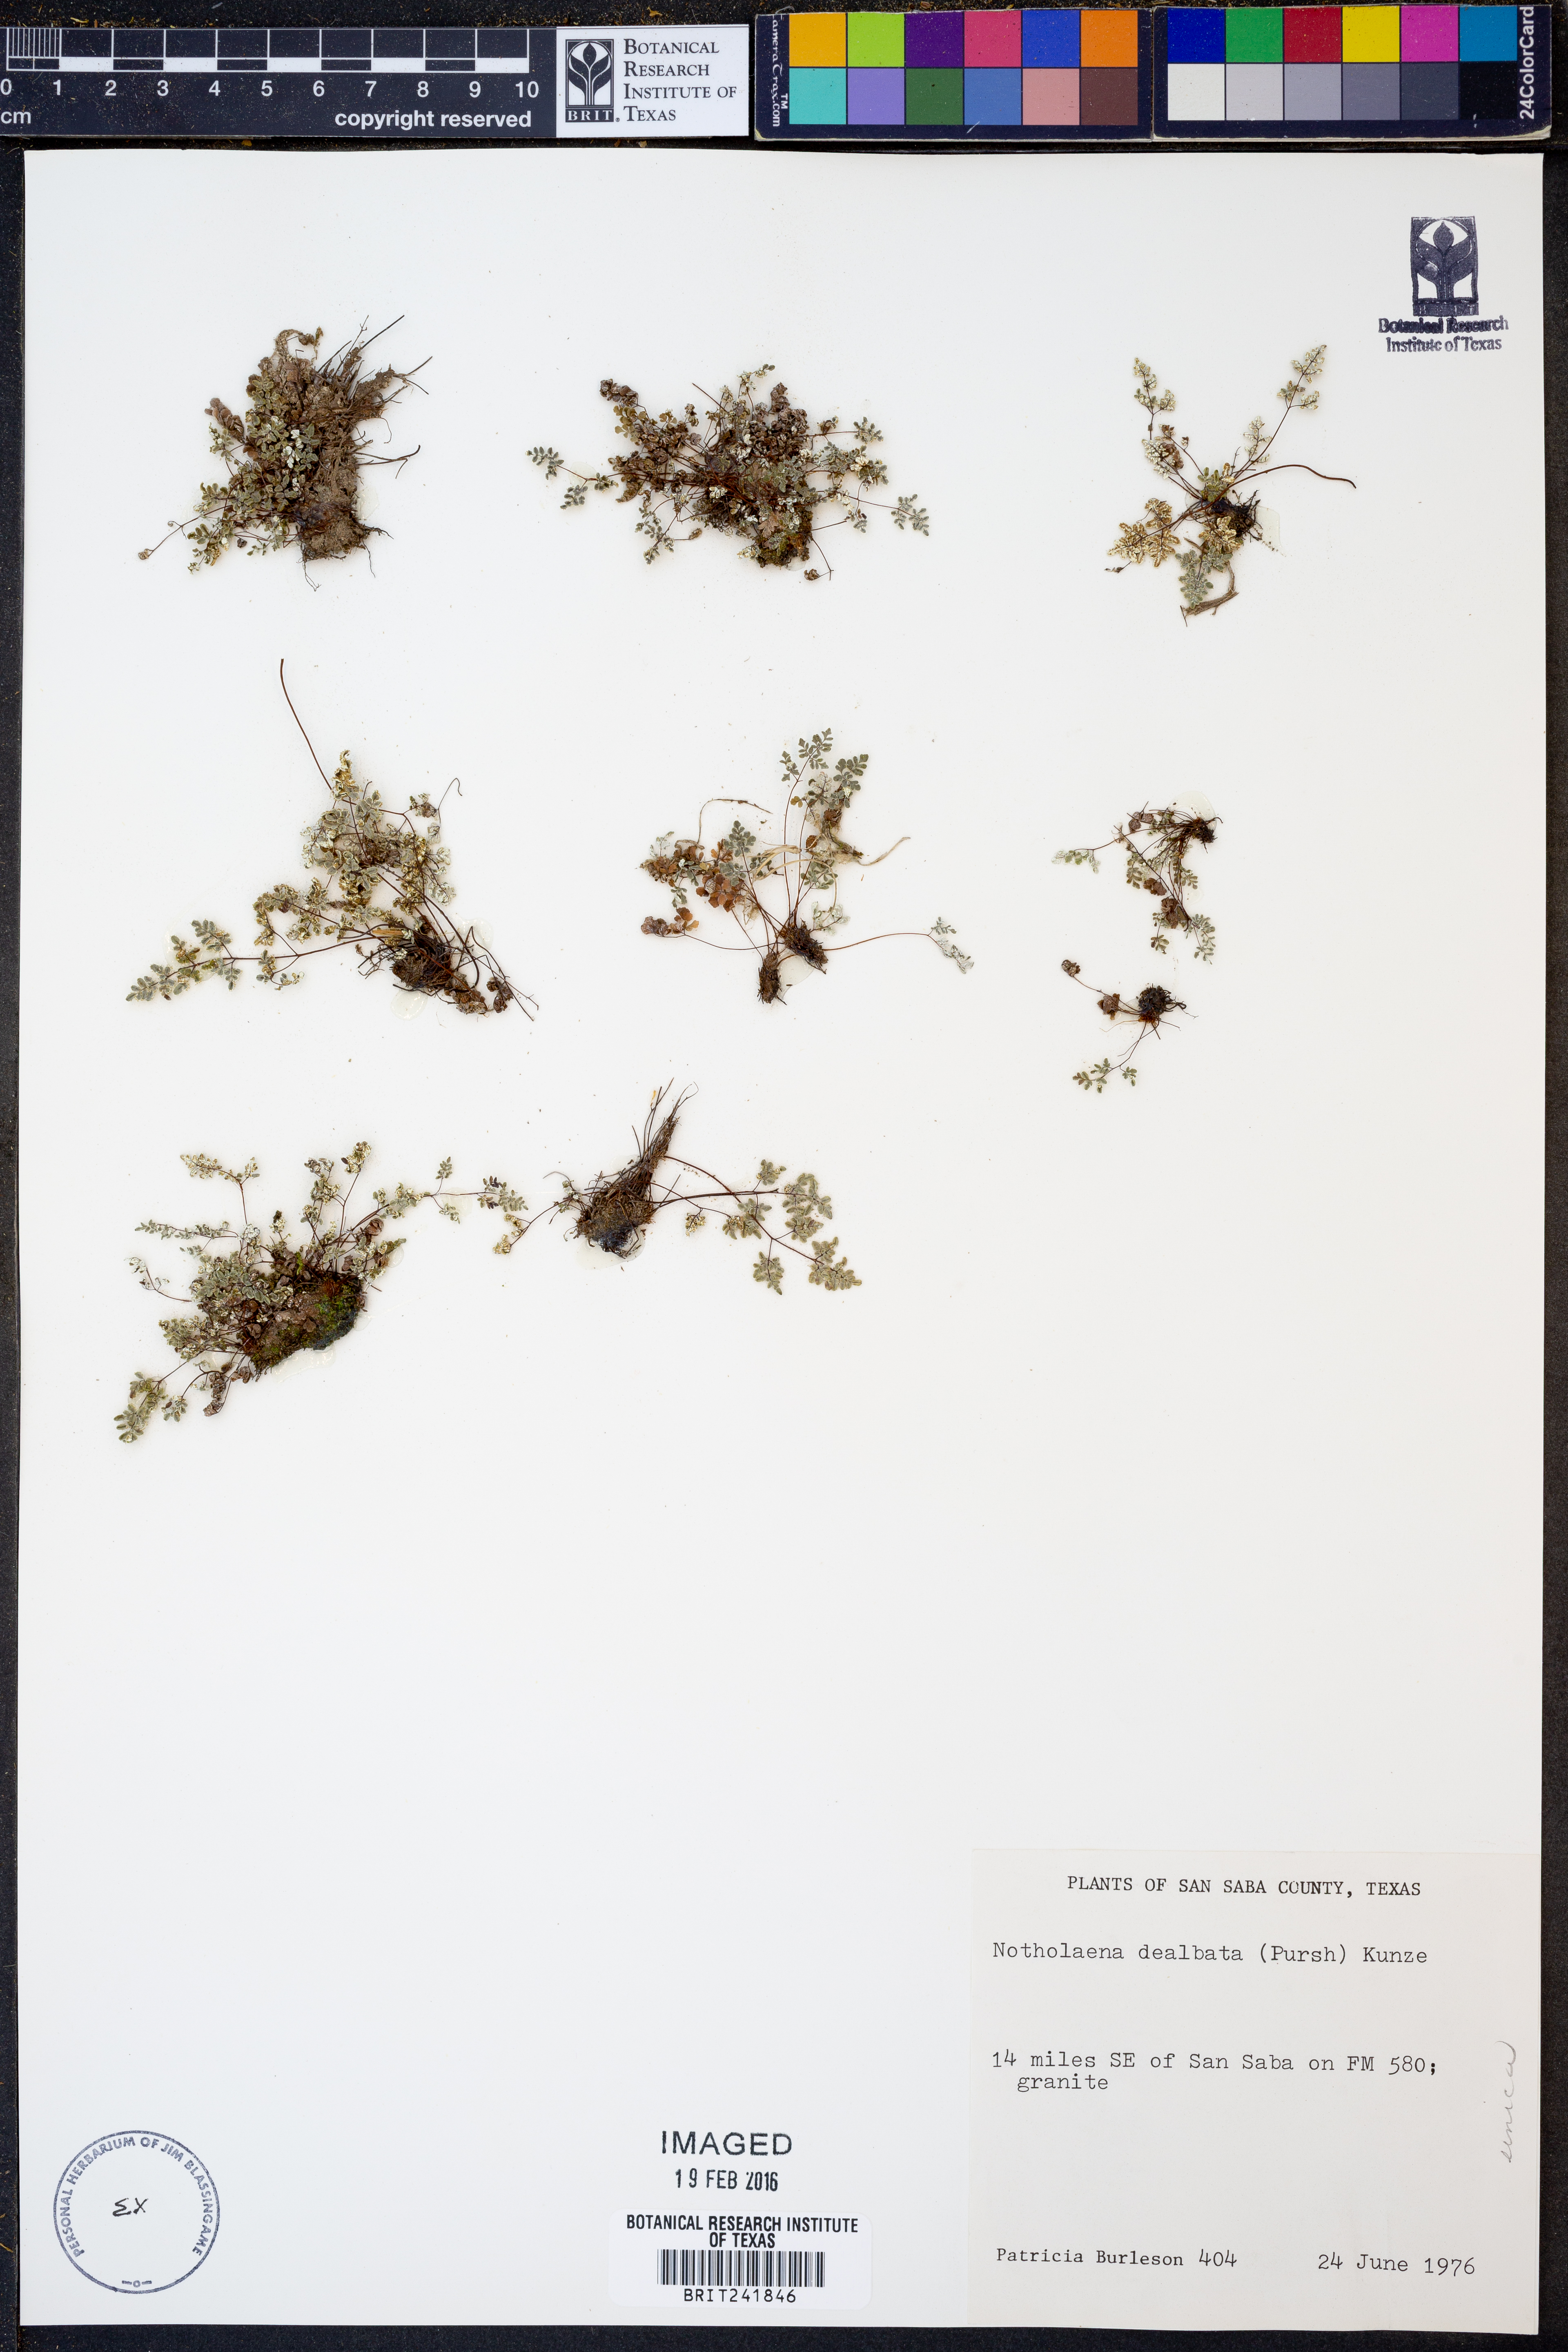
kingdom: Plantae
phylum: Tracheophyta
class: Polypodiopsida
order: Polypodiales
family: Pteridaceae
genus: Argyrochosma
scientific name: Argyrochosma dealbata
